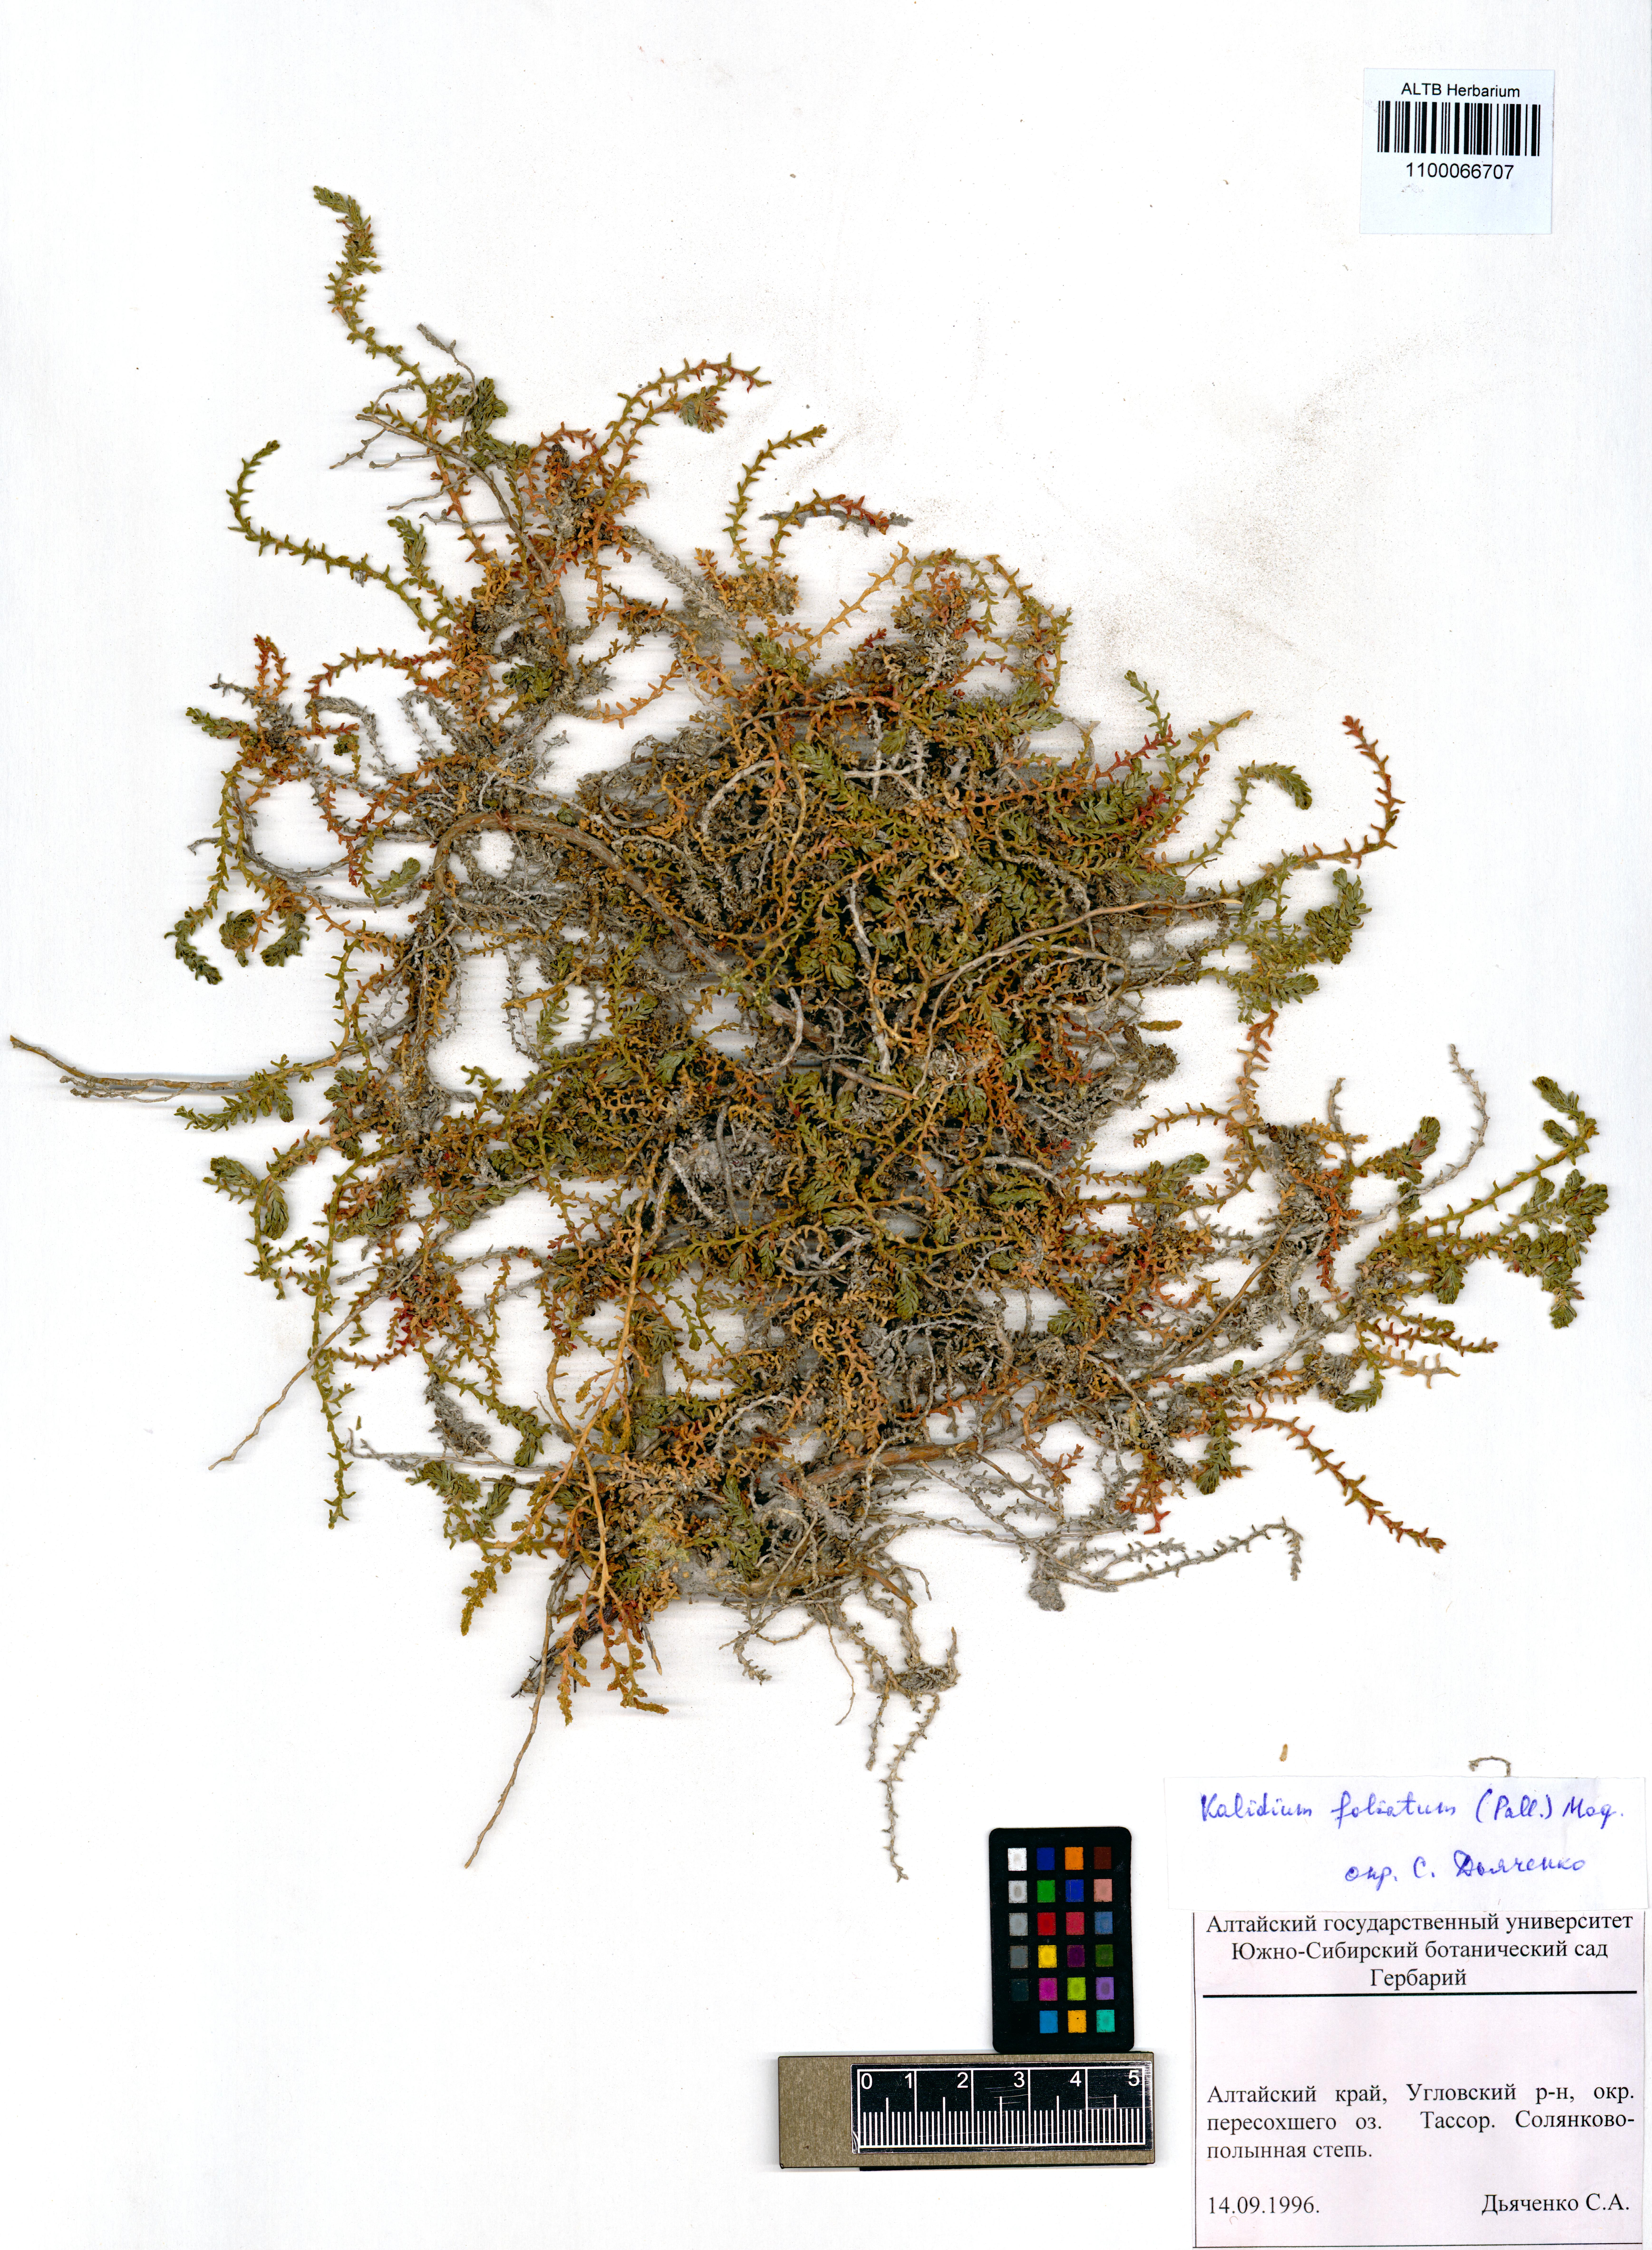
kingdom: Plantae
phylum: Tracheophyta
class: Magnoliopsida
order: Caryophyllales
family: Amaranthaceae
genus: Kalidium
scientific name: Kalidium foliatum
